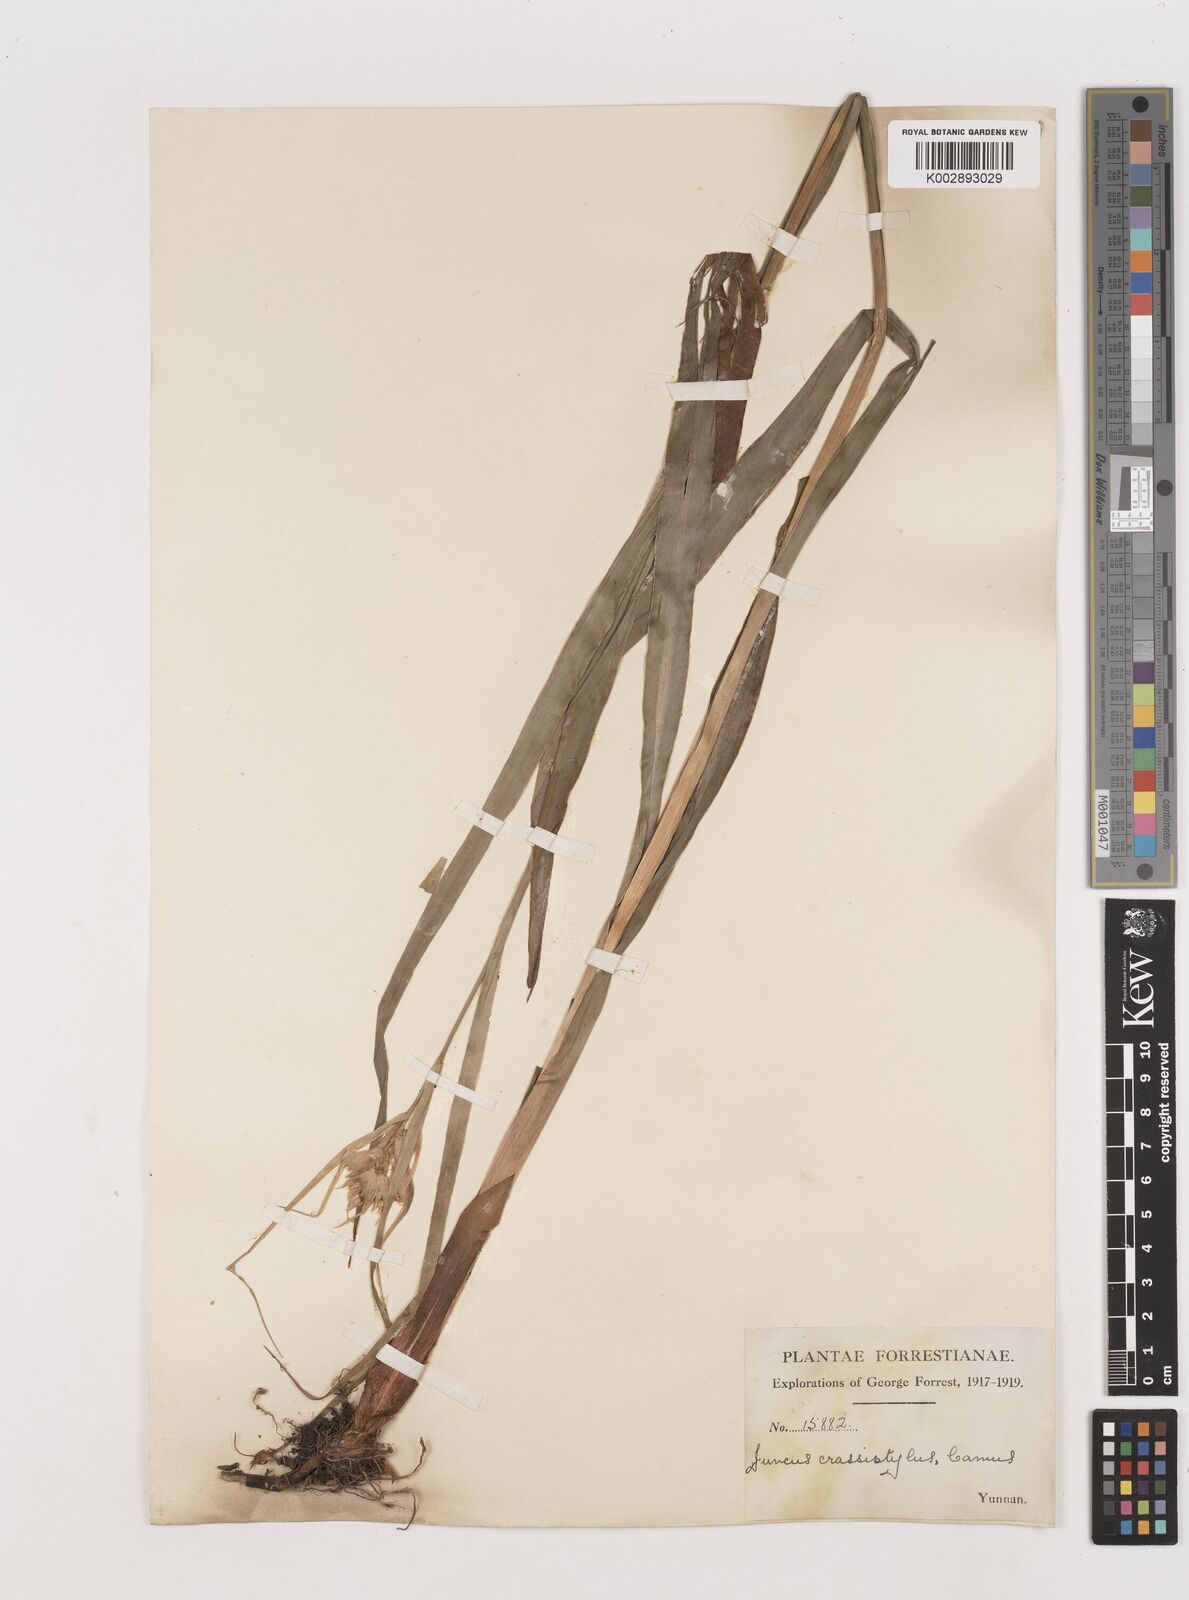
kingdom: Plantae
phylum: Tracheophyta
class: Liliopsida
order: Poales
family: Juncaceae
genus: Juncus
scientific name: Juncus crassistylus
